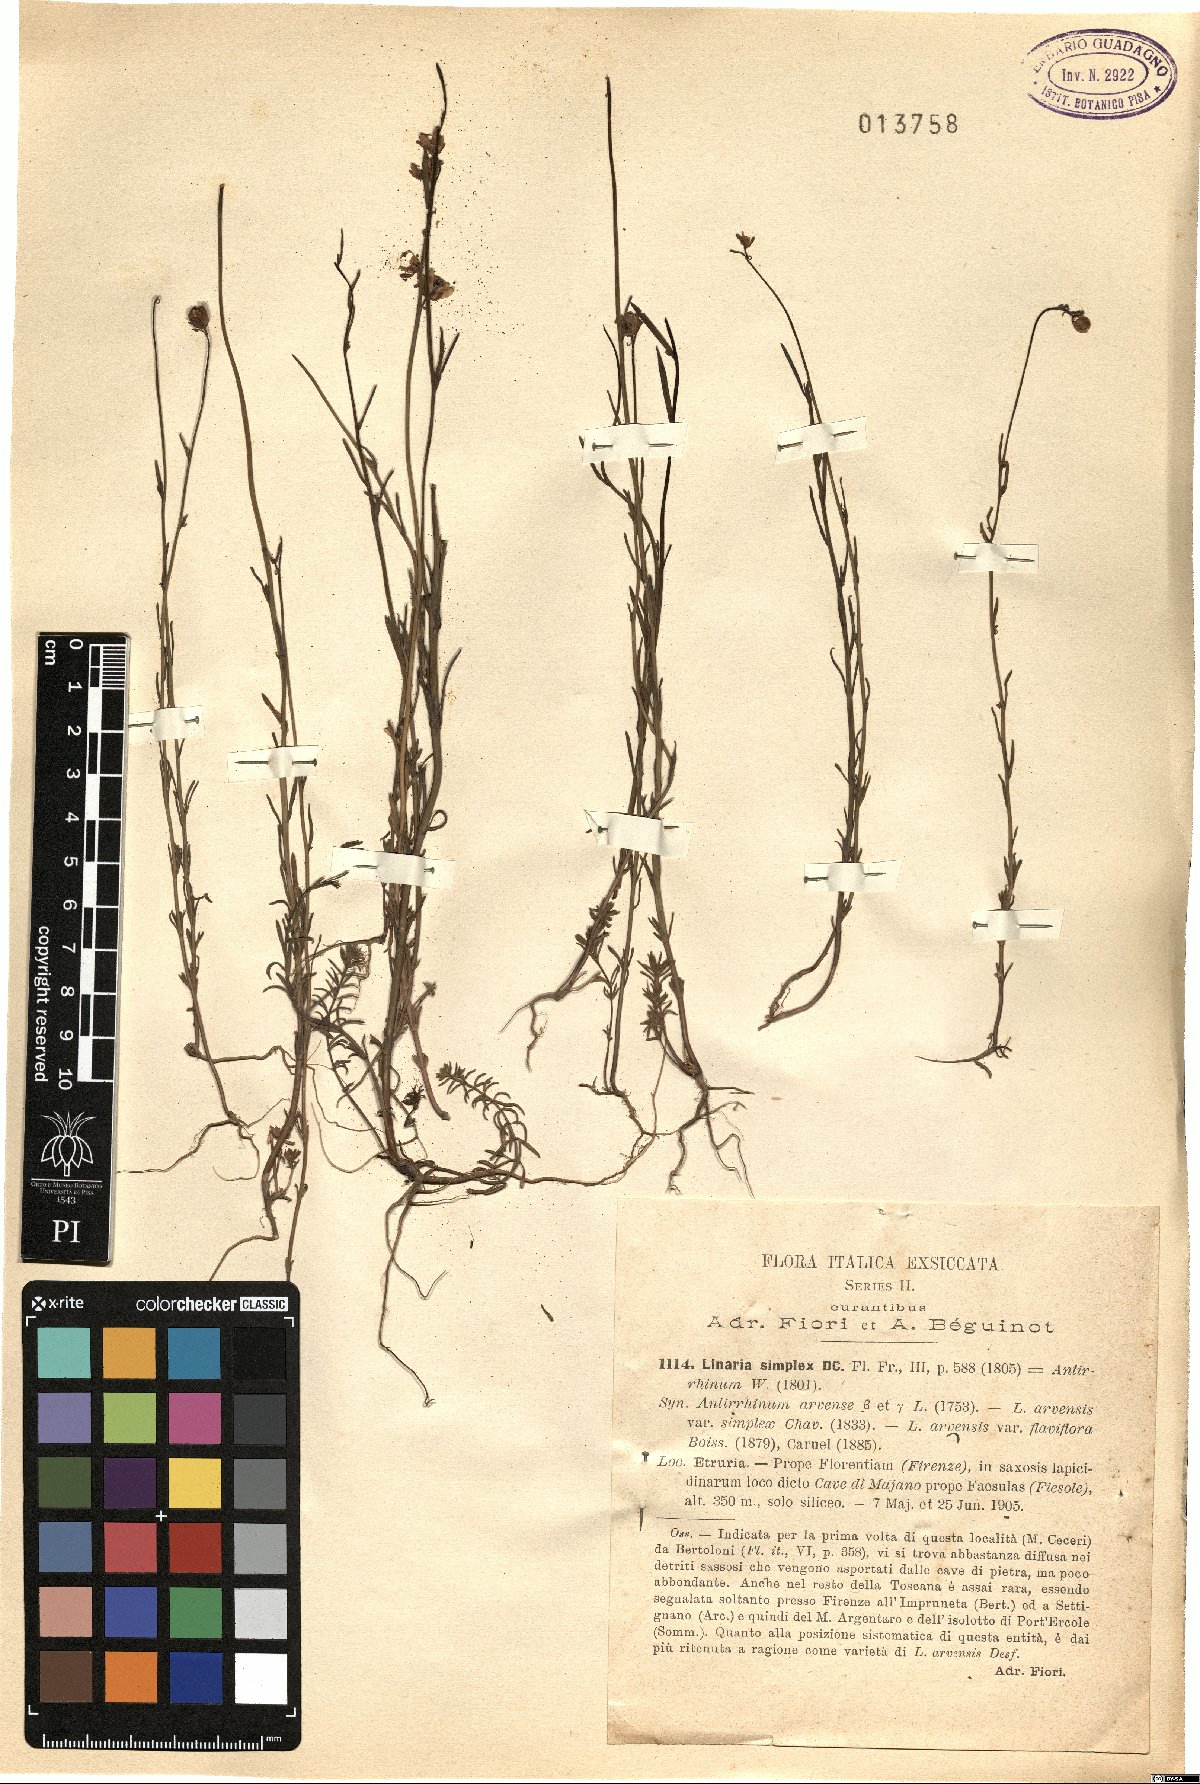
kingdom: Plantae
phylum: Tracheophyta
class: Magnoliopsida
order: Lamiales
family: Plantaginaceae
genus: Linaria
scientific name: Linaria simplex
